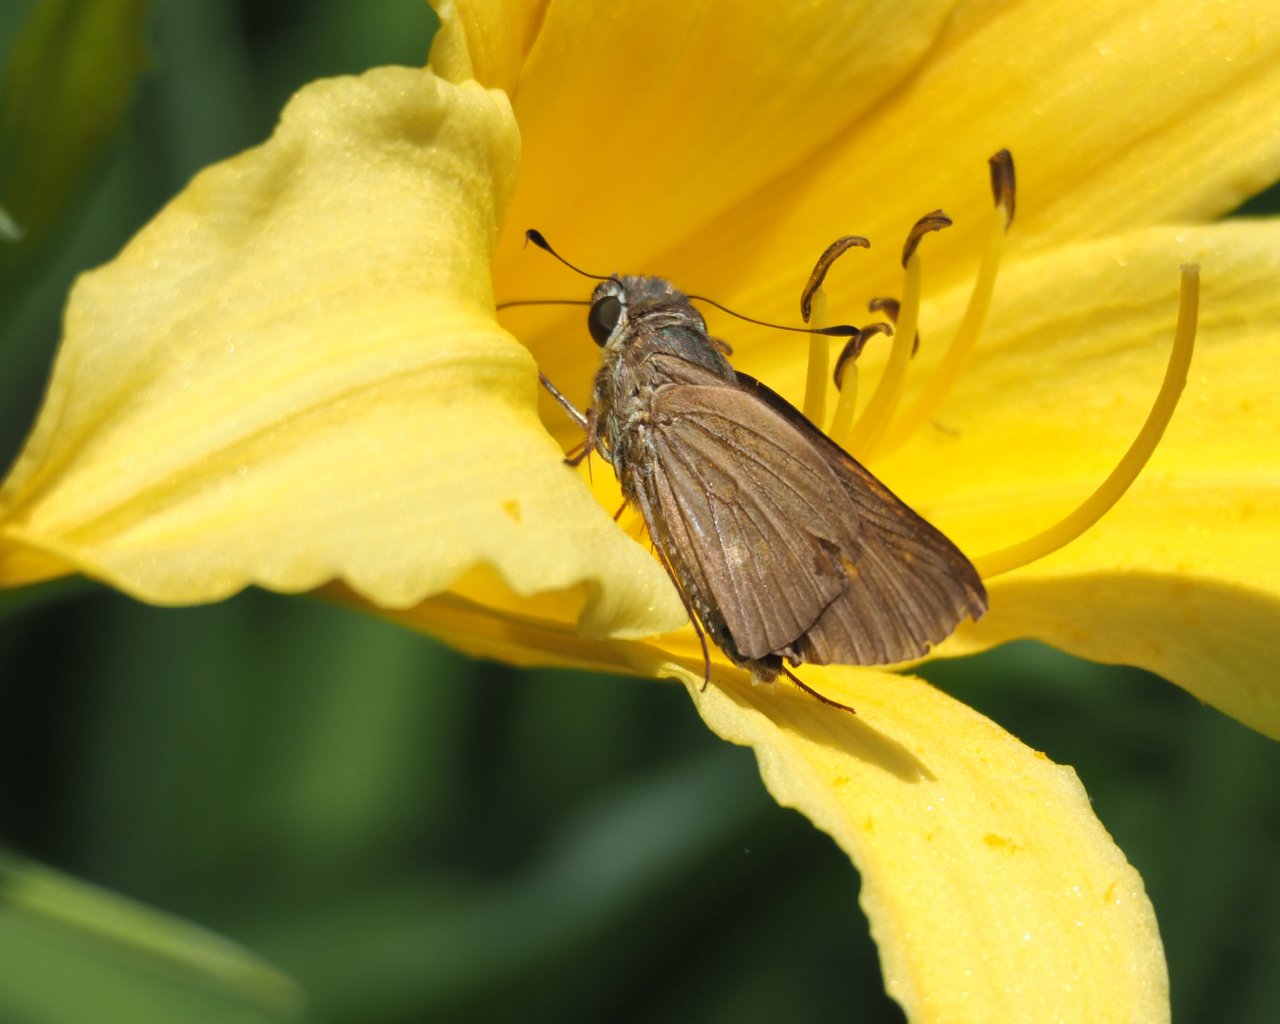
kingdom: Animalia
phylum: Arthropoda
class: Insecta
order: Lepidoptera
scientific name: Lepidoptera
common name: Butterflies
